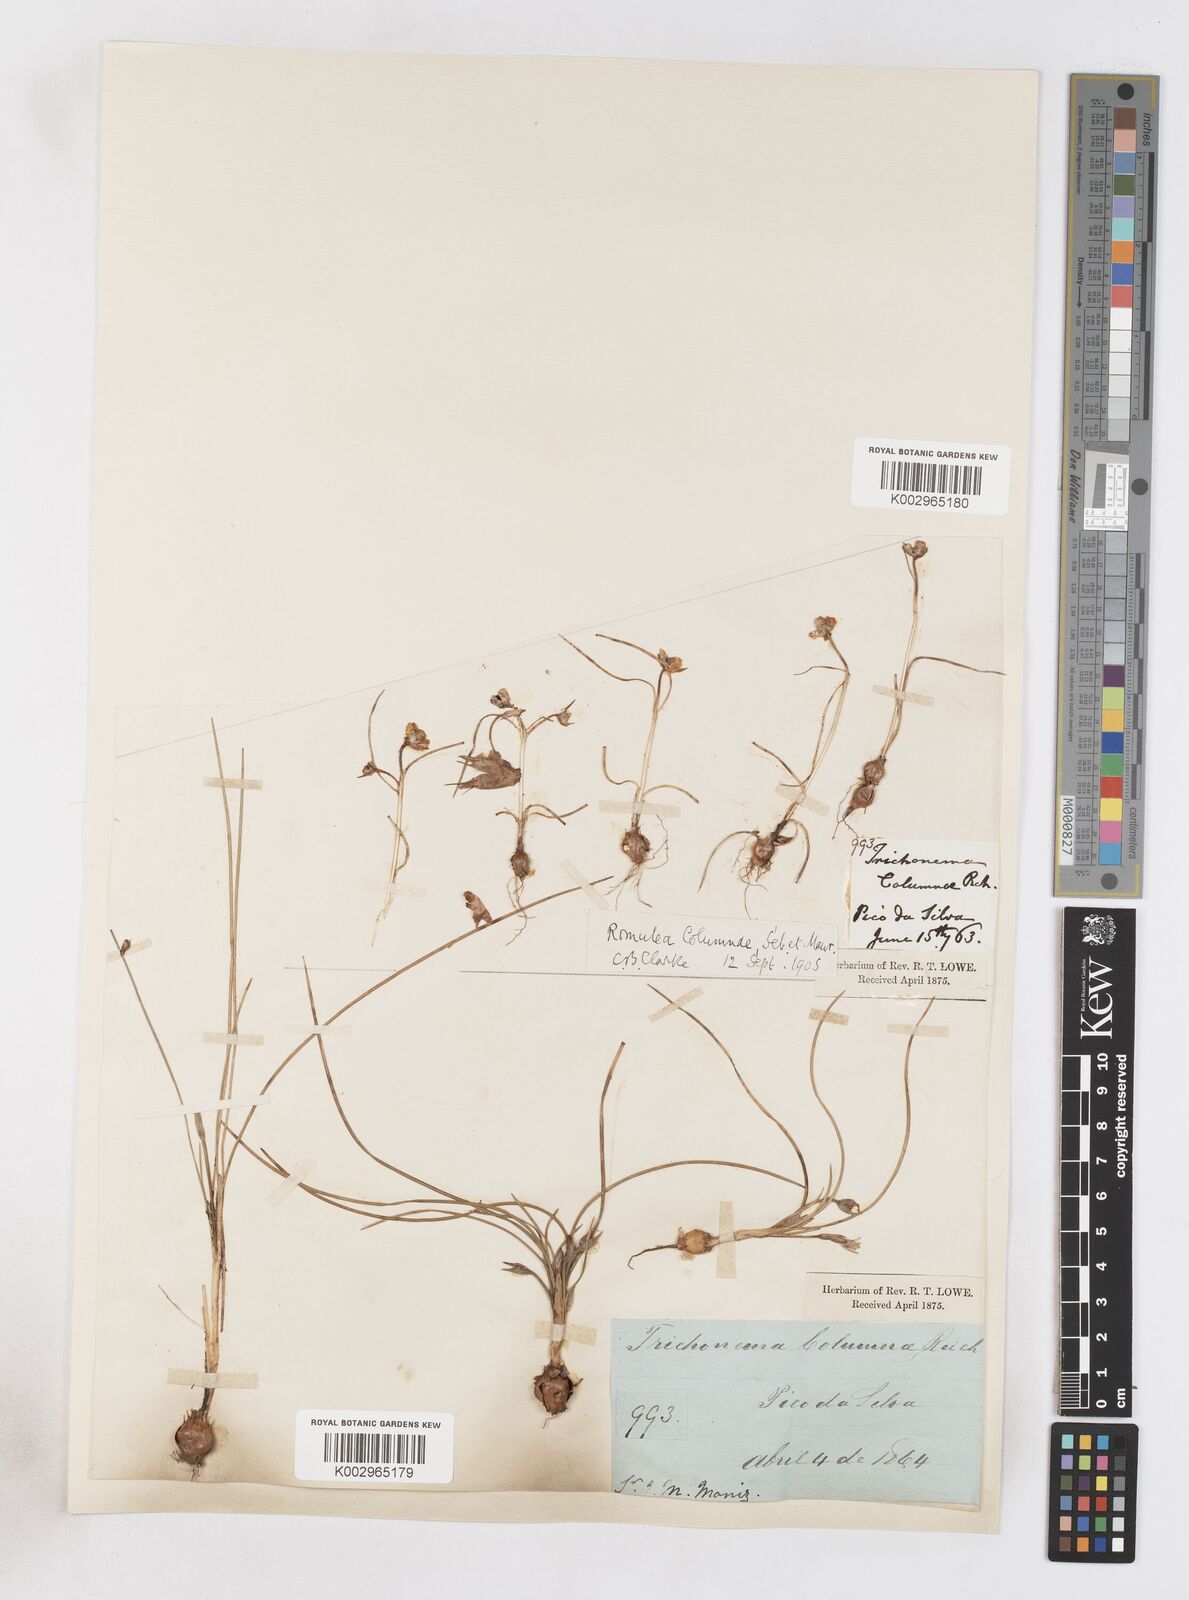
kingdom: Plantae
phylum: Tracheophyta
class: Liliopsida
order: Asparagales
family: Iridaceae
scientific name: Iridaceae
